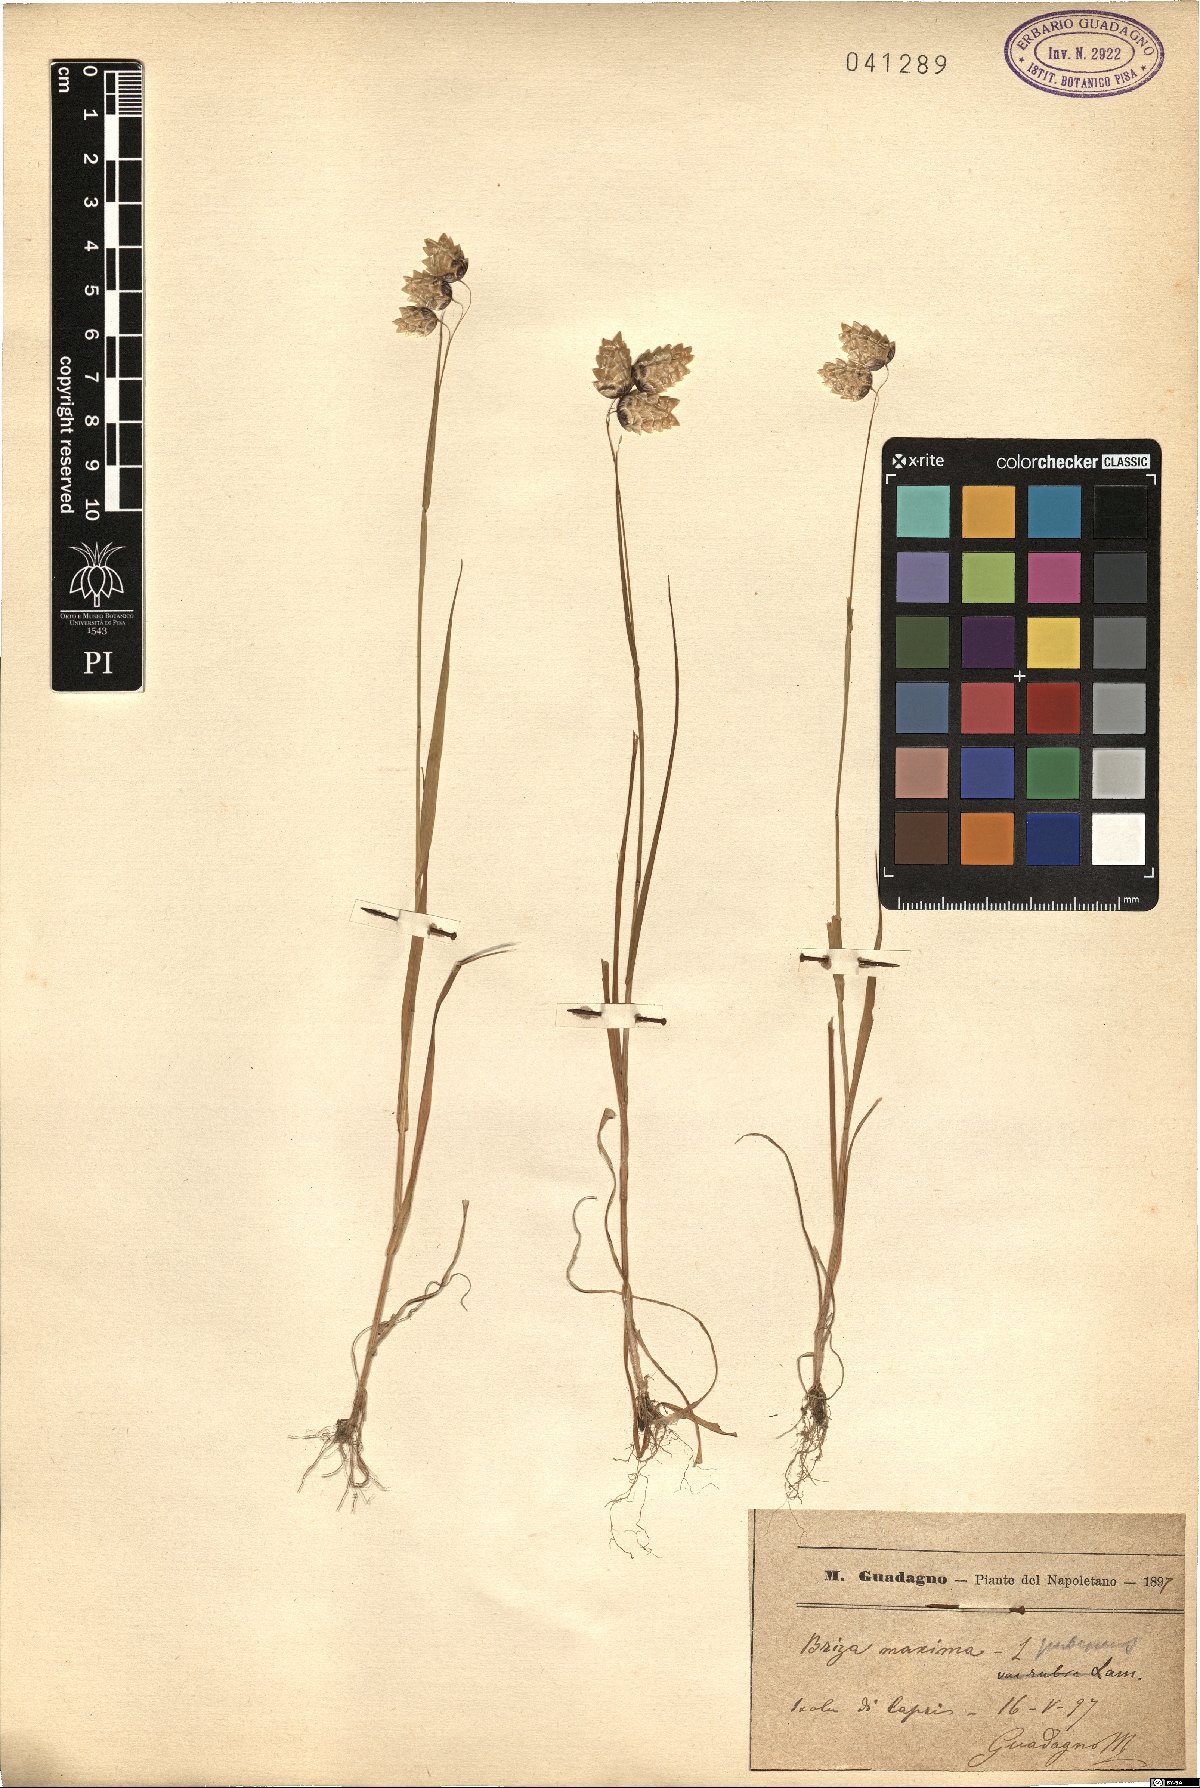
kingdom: Plantae
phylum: Tracheophyta
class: Liliopsida
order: Poales
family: Poaceae
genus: Briza
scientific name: Briza maxima
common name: Big quakinggrass
